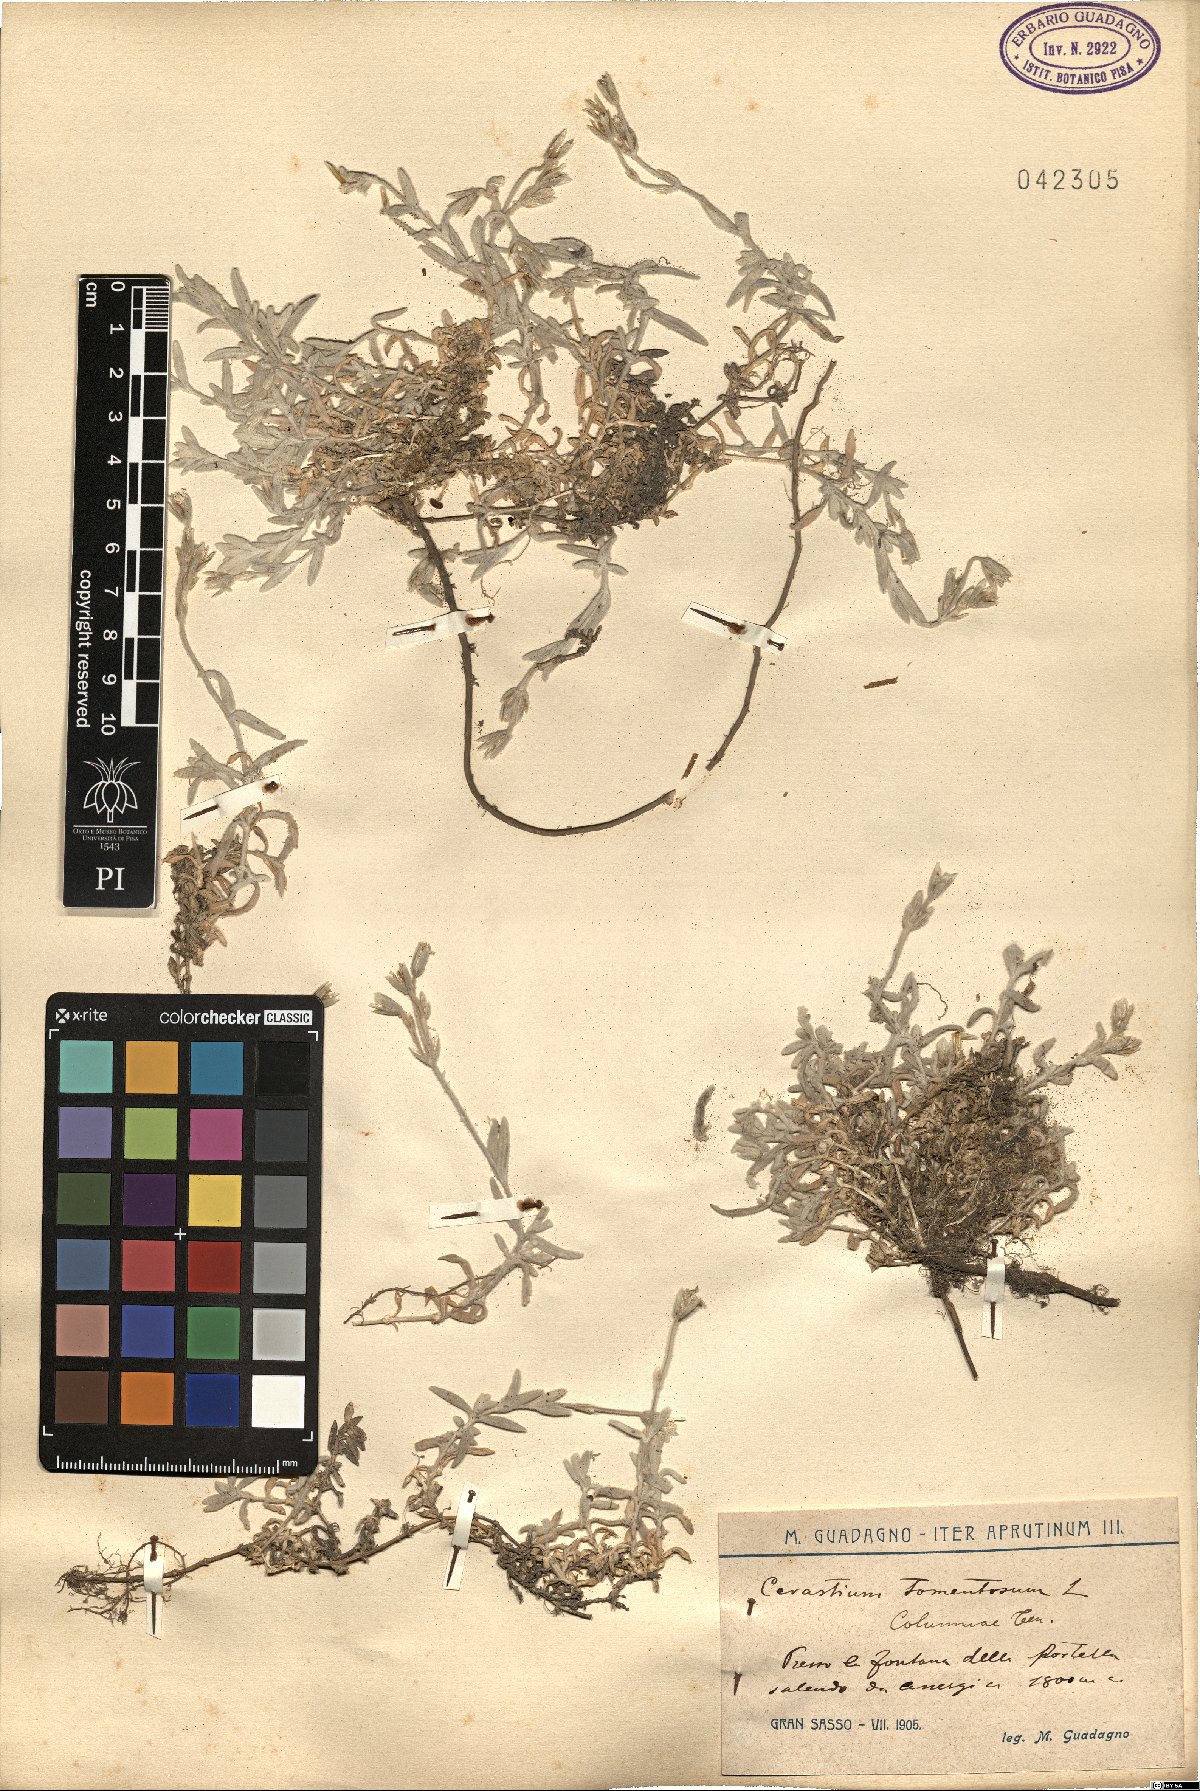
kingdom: Plantae
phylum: Tracheophyta
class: Magnoliopsida
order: Caryophyllales
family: Caryophyllaceae
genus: Cerastium
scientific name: Cerastium tomentosum
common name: Snow-in-summer
